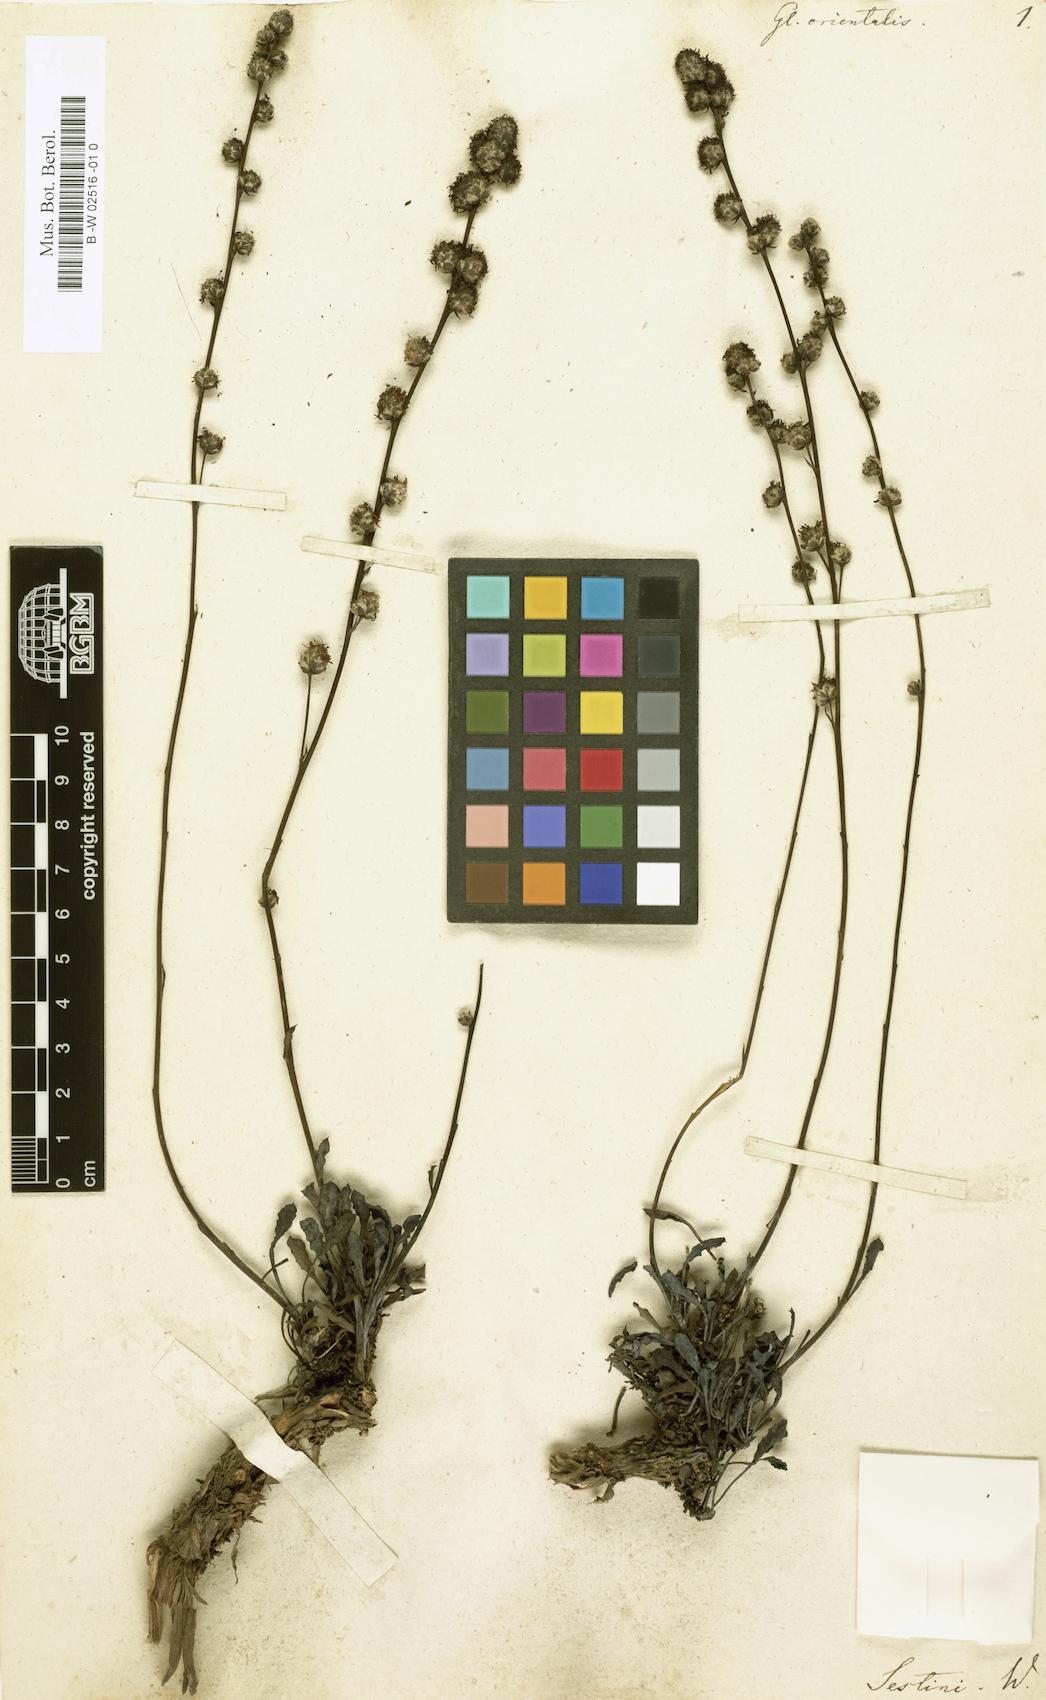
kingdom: Plantae
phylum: Tracheophyta
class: Magnoliopsida
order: Lamiales
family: Plantaginaceae
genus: Globularia
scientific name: Globularia orientalis
